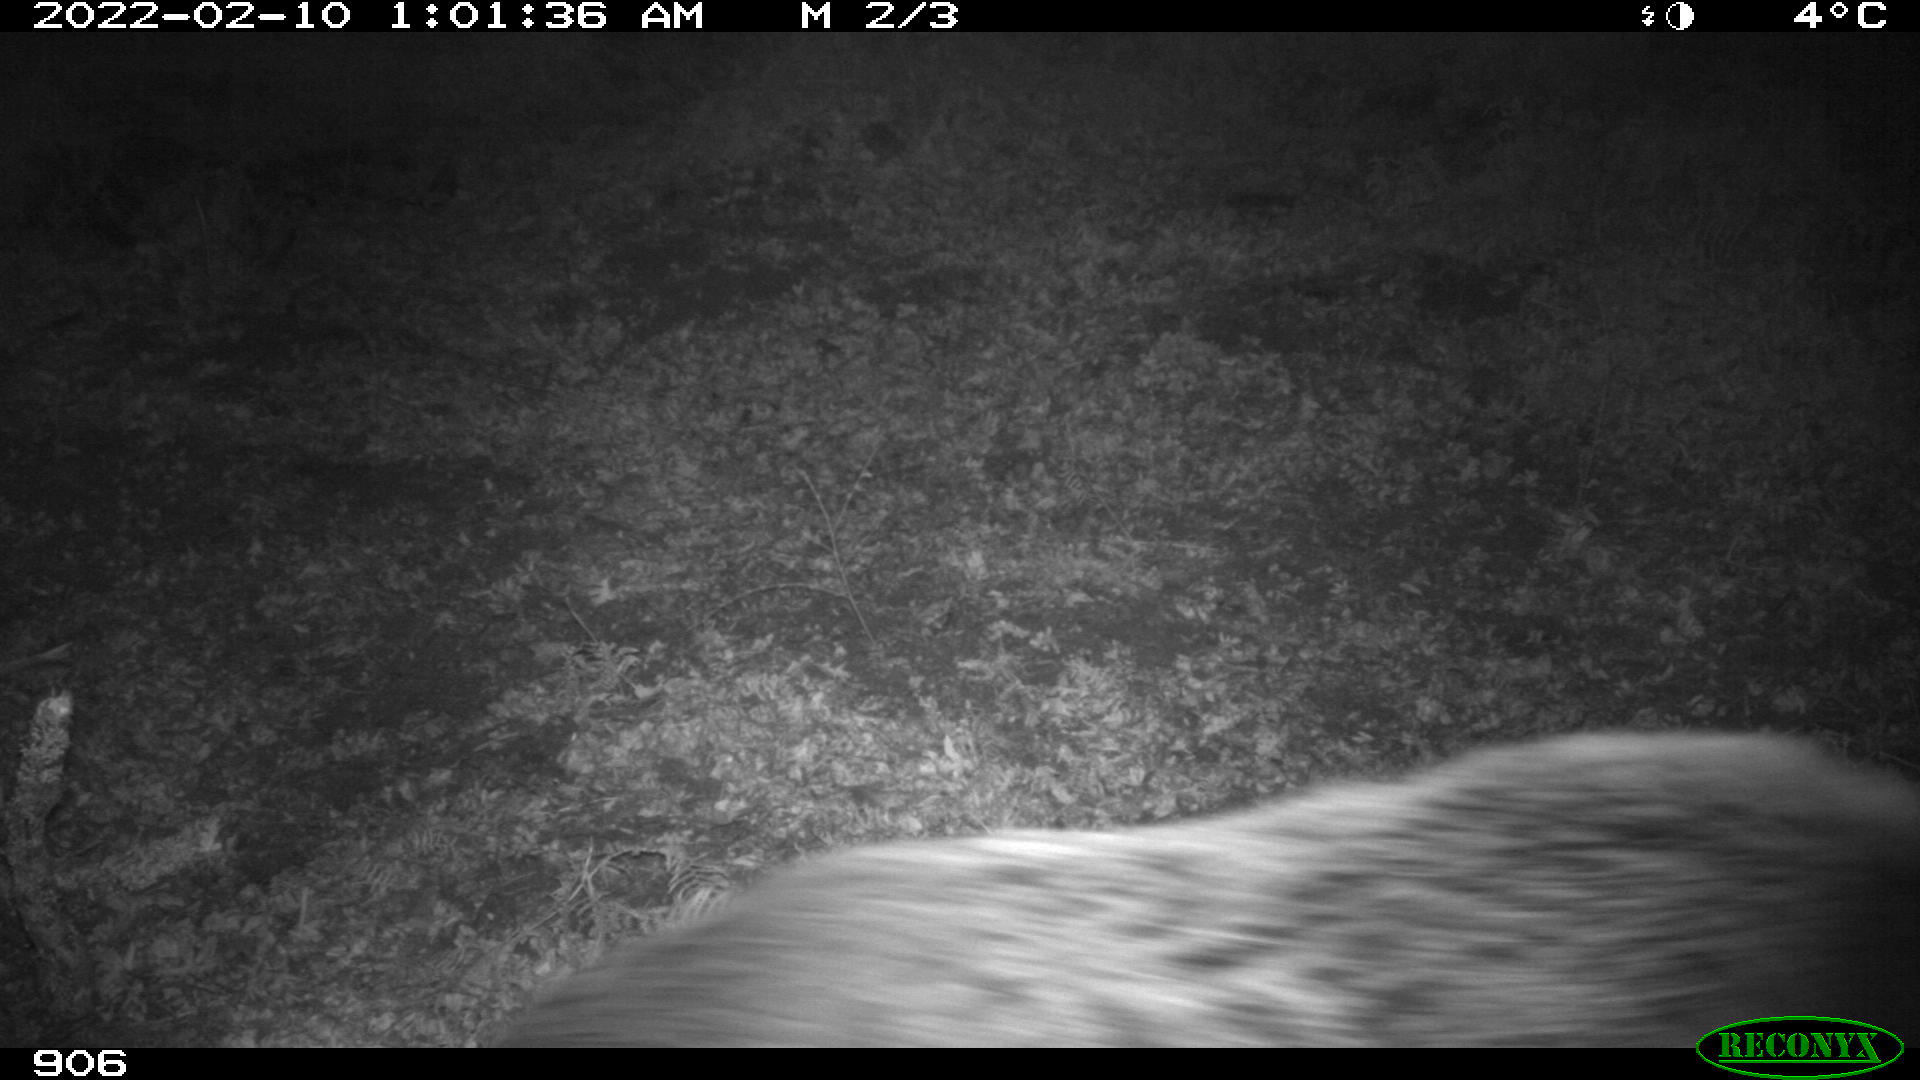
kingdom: Animalia
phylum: Chordata
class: Mammalia
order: Artiodactyla
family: Suidae
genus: Sus
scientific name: Sus scrofa
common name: Wild boar
